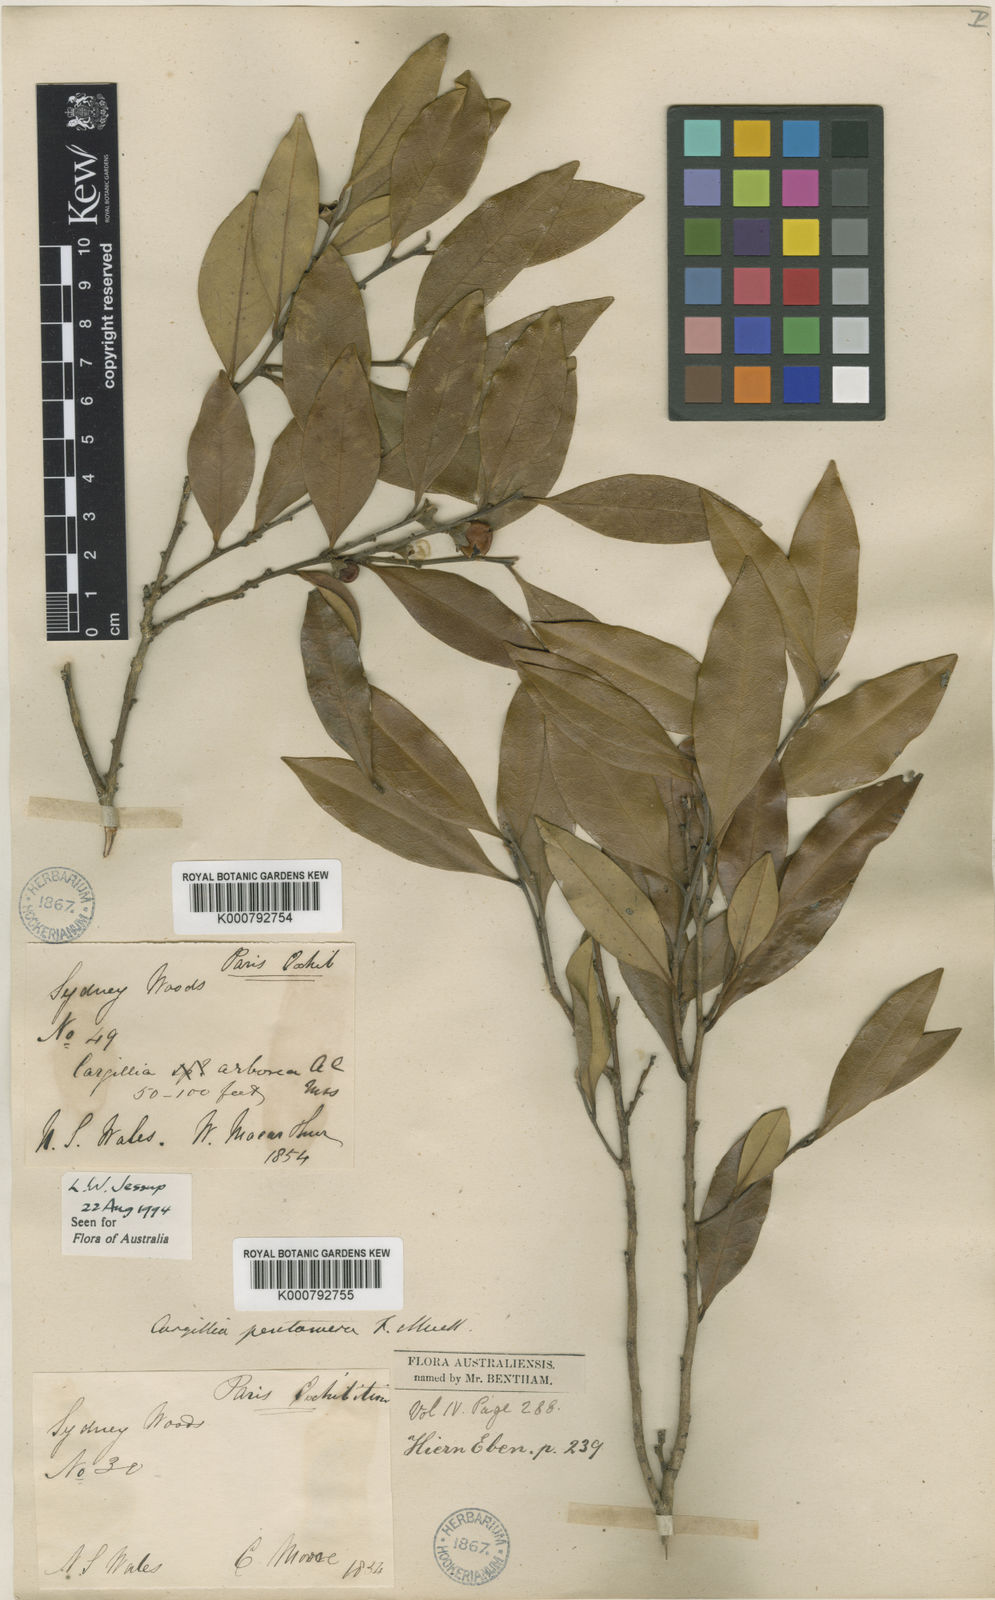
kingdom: Plantae
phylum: Tracheophyta
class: Magnoliopsida
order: Ericales
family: Ebenaceae
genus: Diospyros
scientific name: Diospyros pentamera
